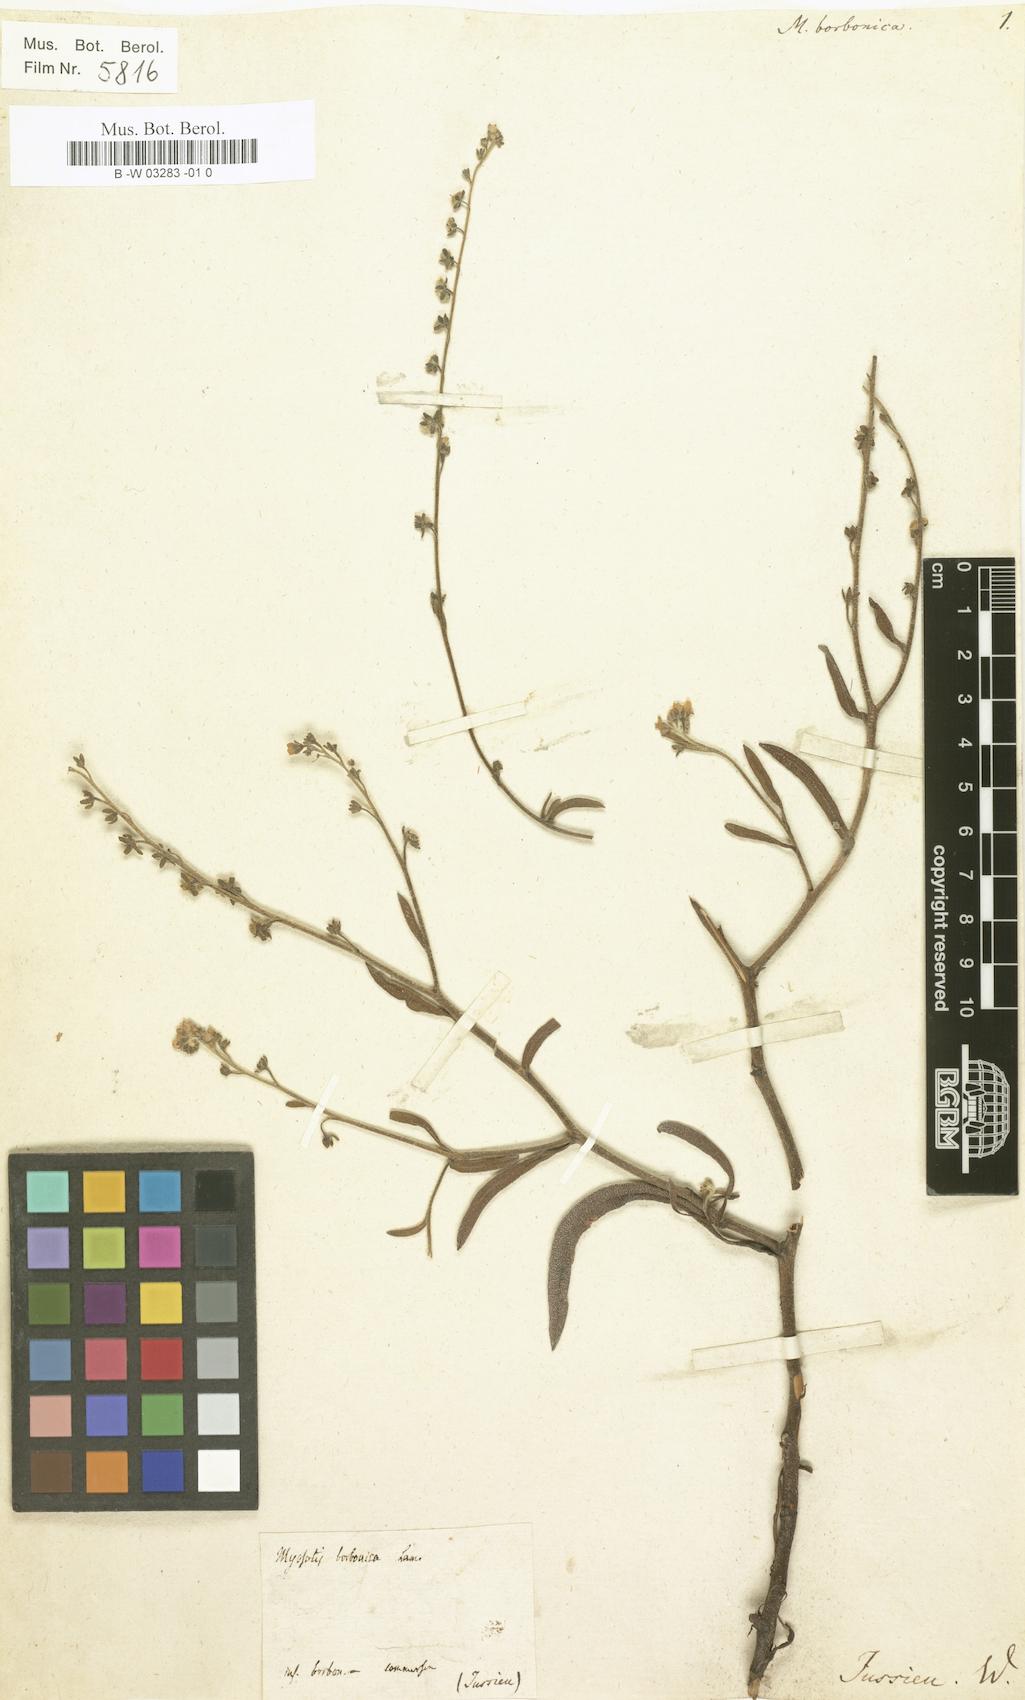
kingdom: Plantae
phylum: Tracheophyta
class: Magnoliopsida
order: Boraginales
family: Boraginaceae
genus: Cynoglossum
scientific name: Cynoglossum borbonicum
